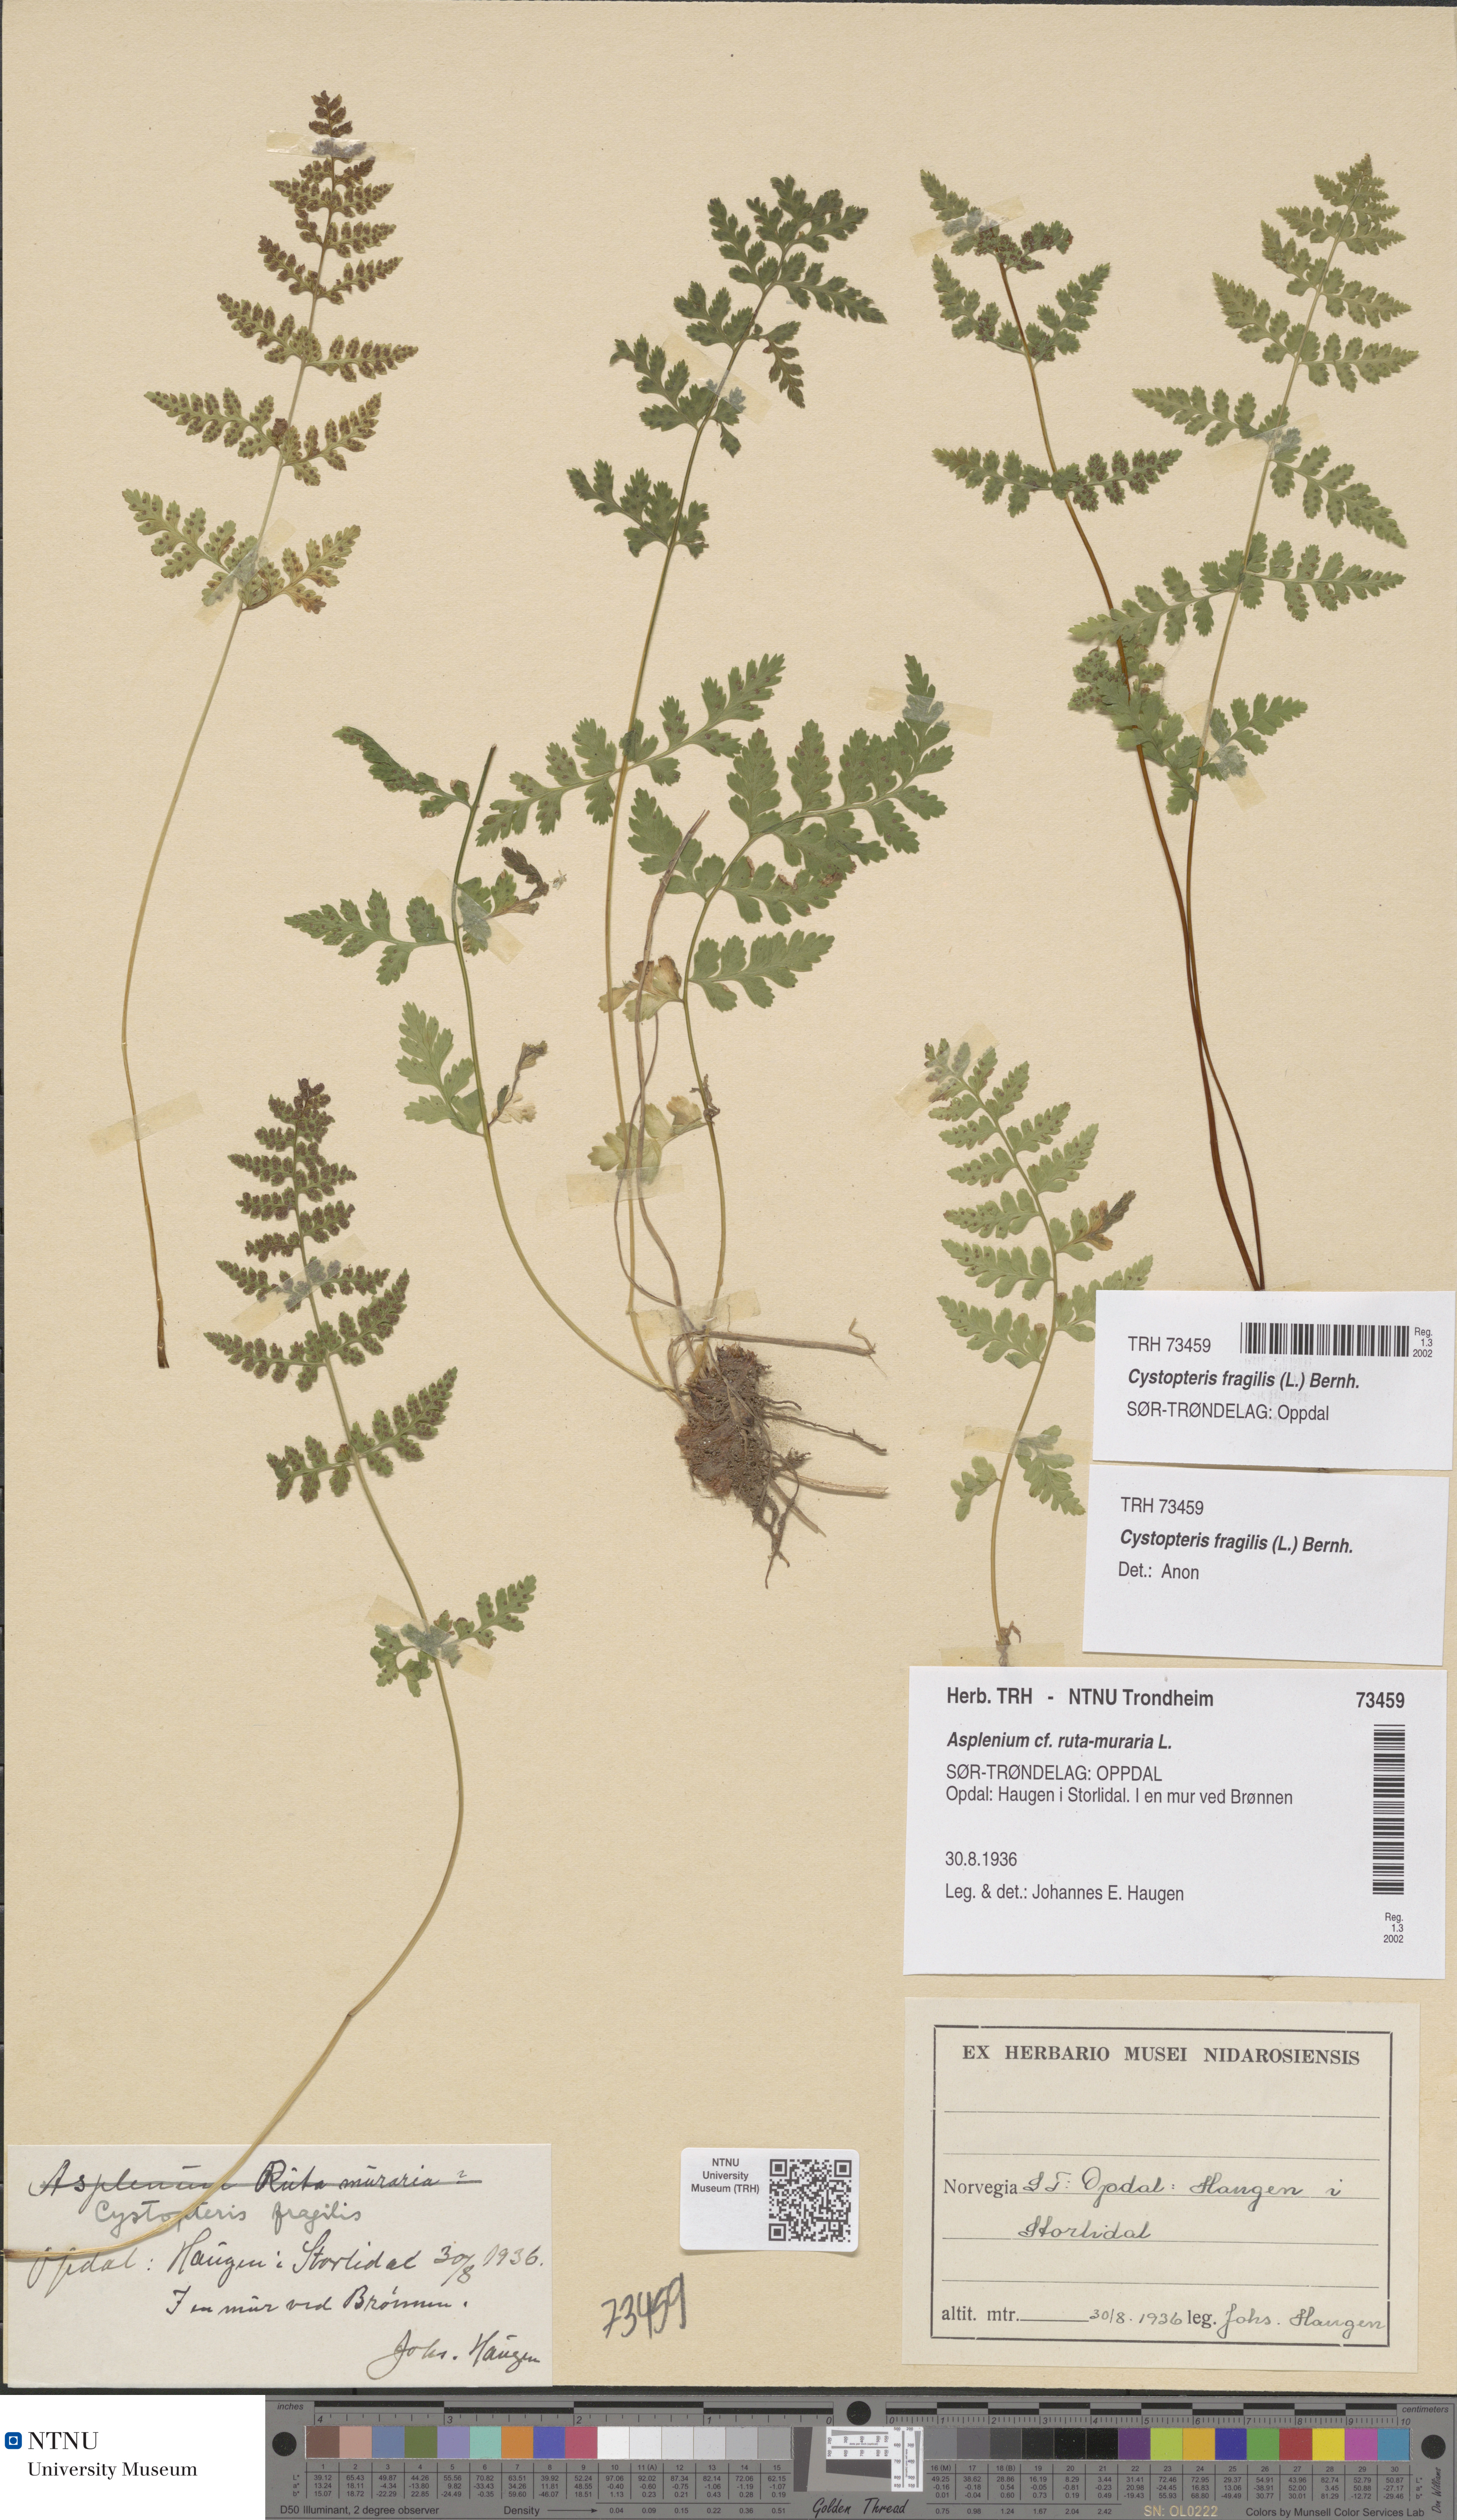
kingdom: Plantae
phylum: Tracheophyta
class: Polypodiopsida
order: Polypodiales
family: Cystopteridaceae
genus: Cystopteris
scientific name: Cystopteris fragilis
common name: Brittle bladder fern
